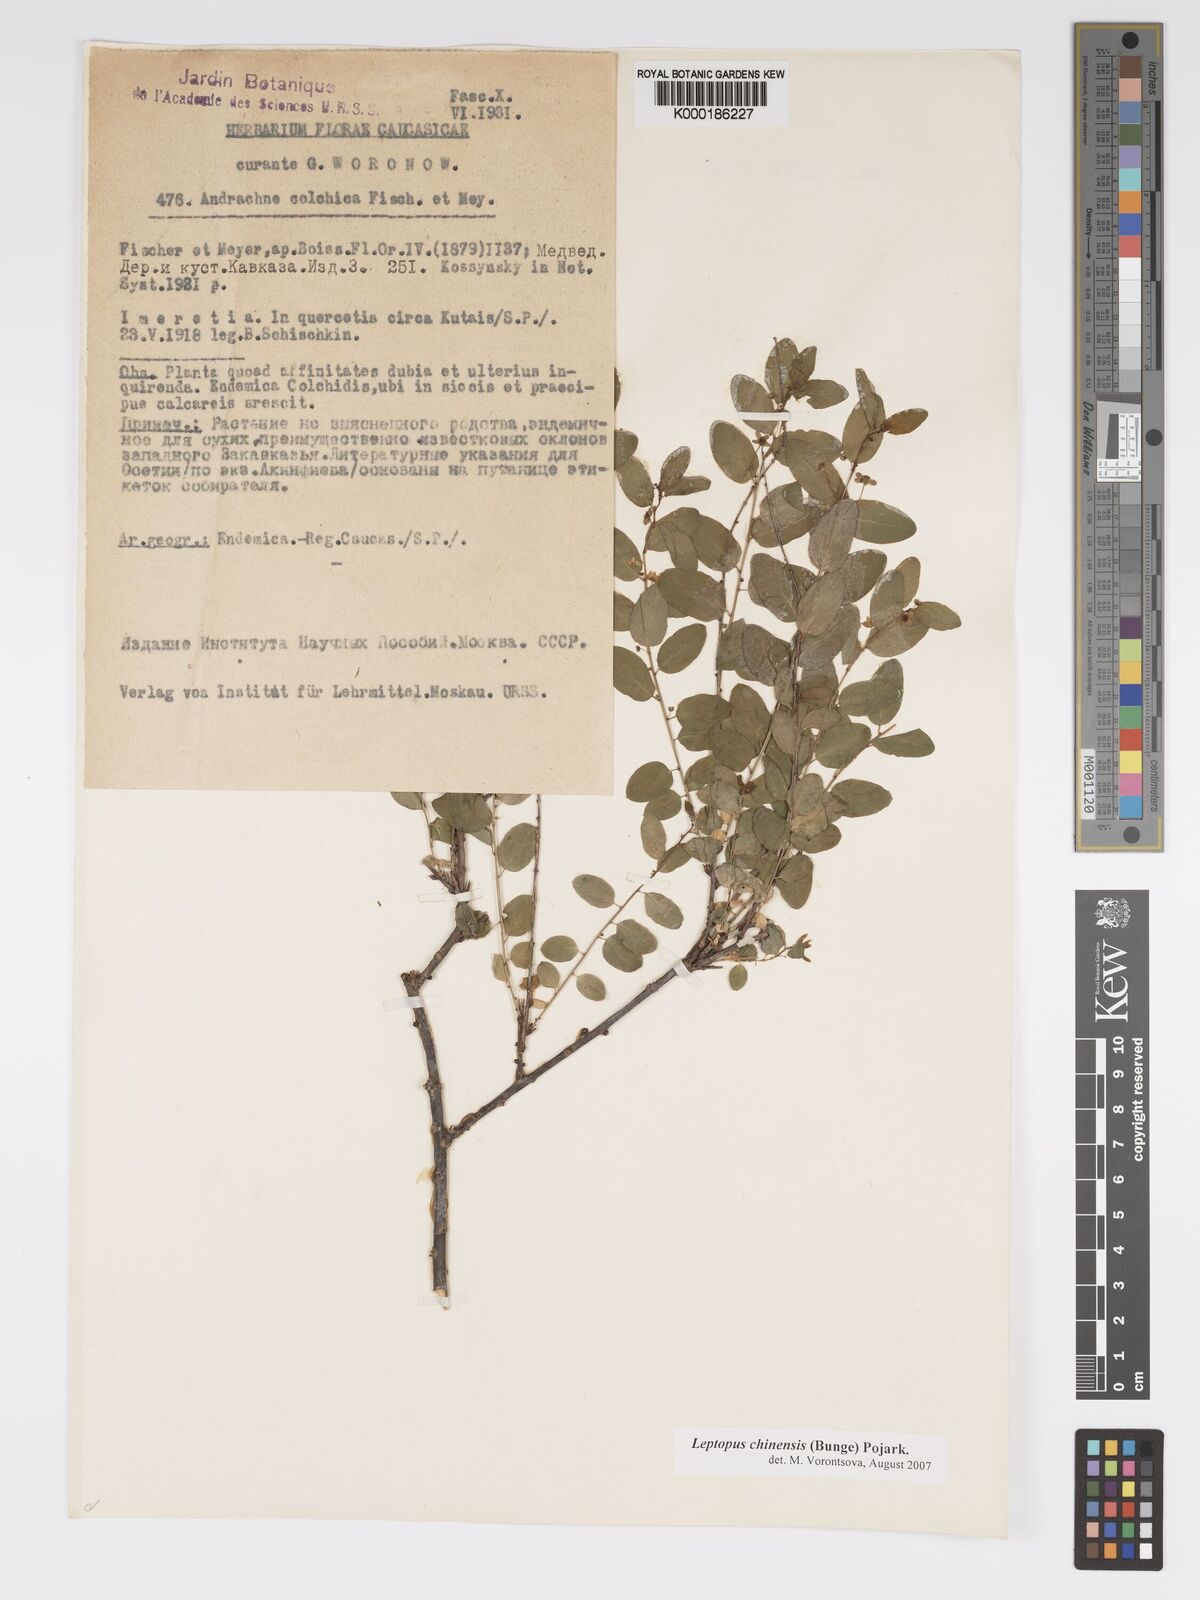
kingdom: Plantae
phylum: Tracheophyta
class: Magnoliopsida
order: Malpighiales
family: Phyllanthaceae
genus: Leptopus
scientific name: Leptopus chinensis
